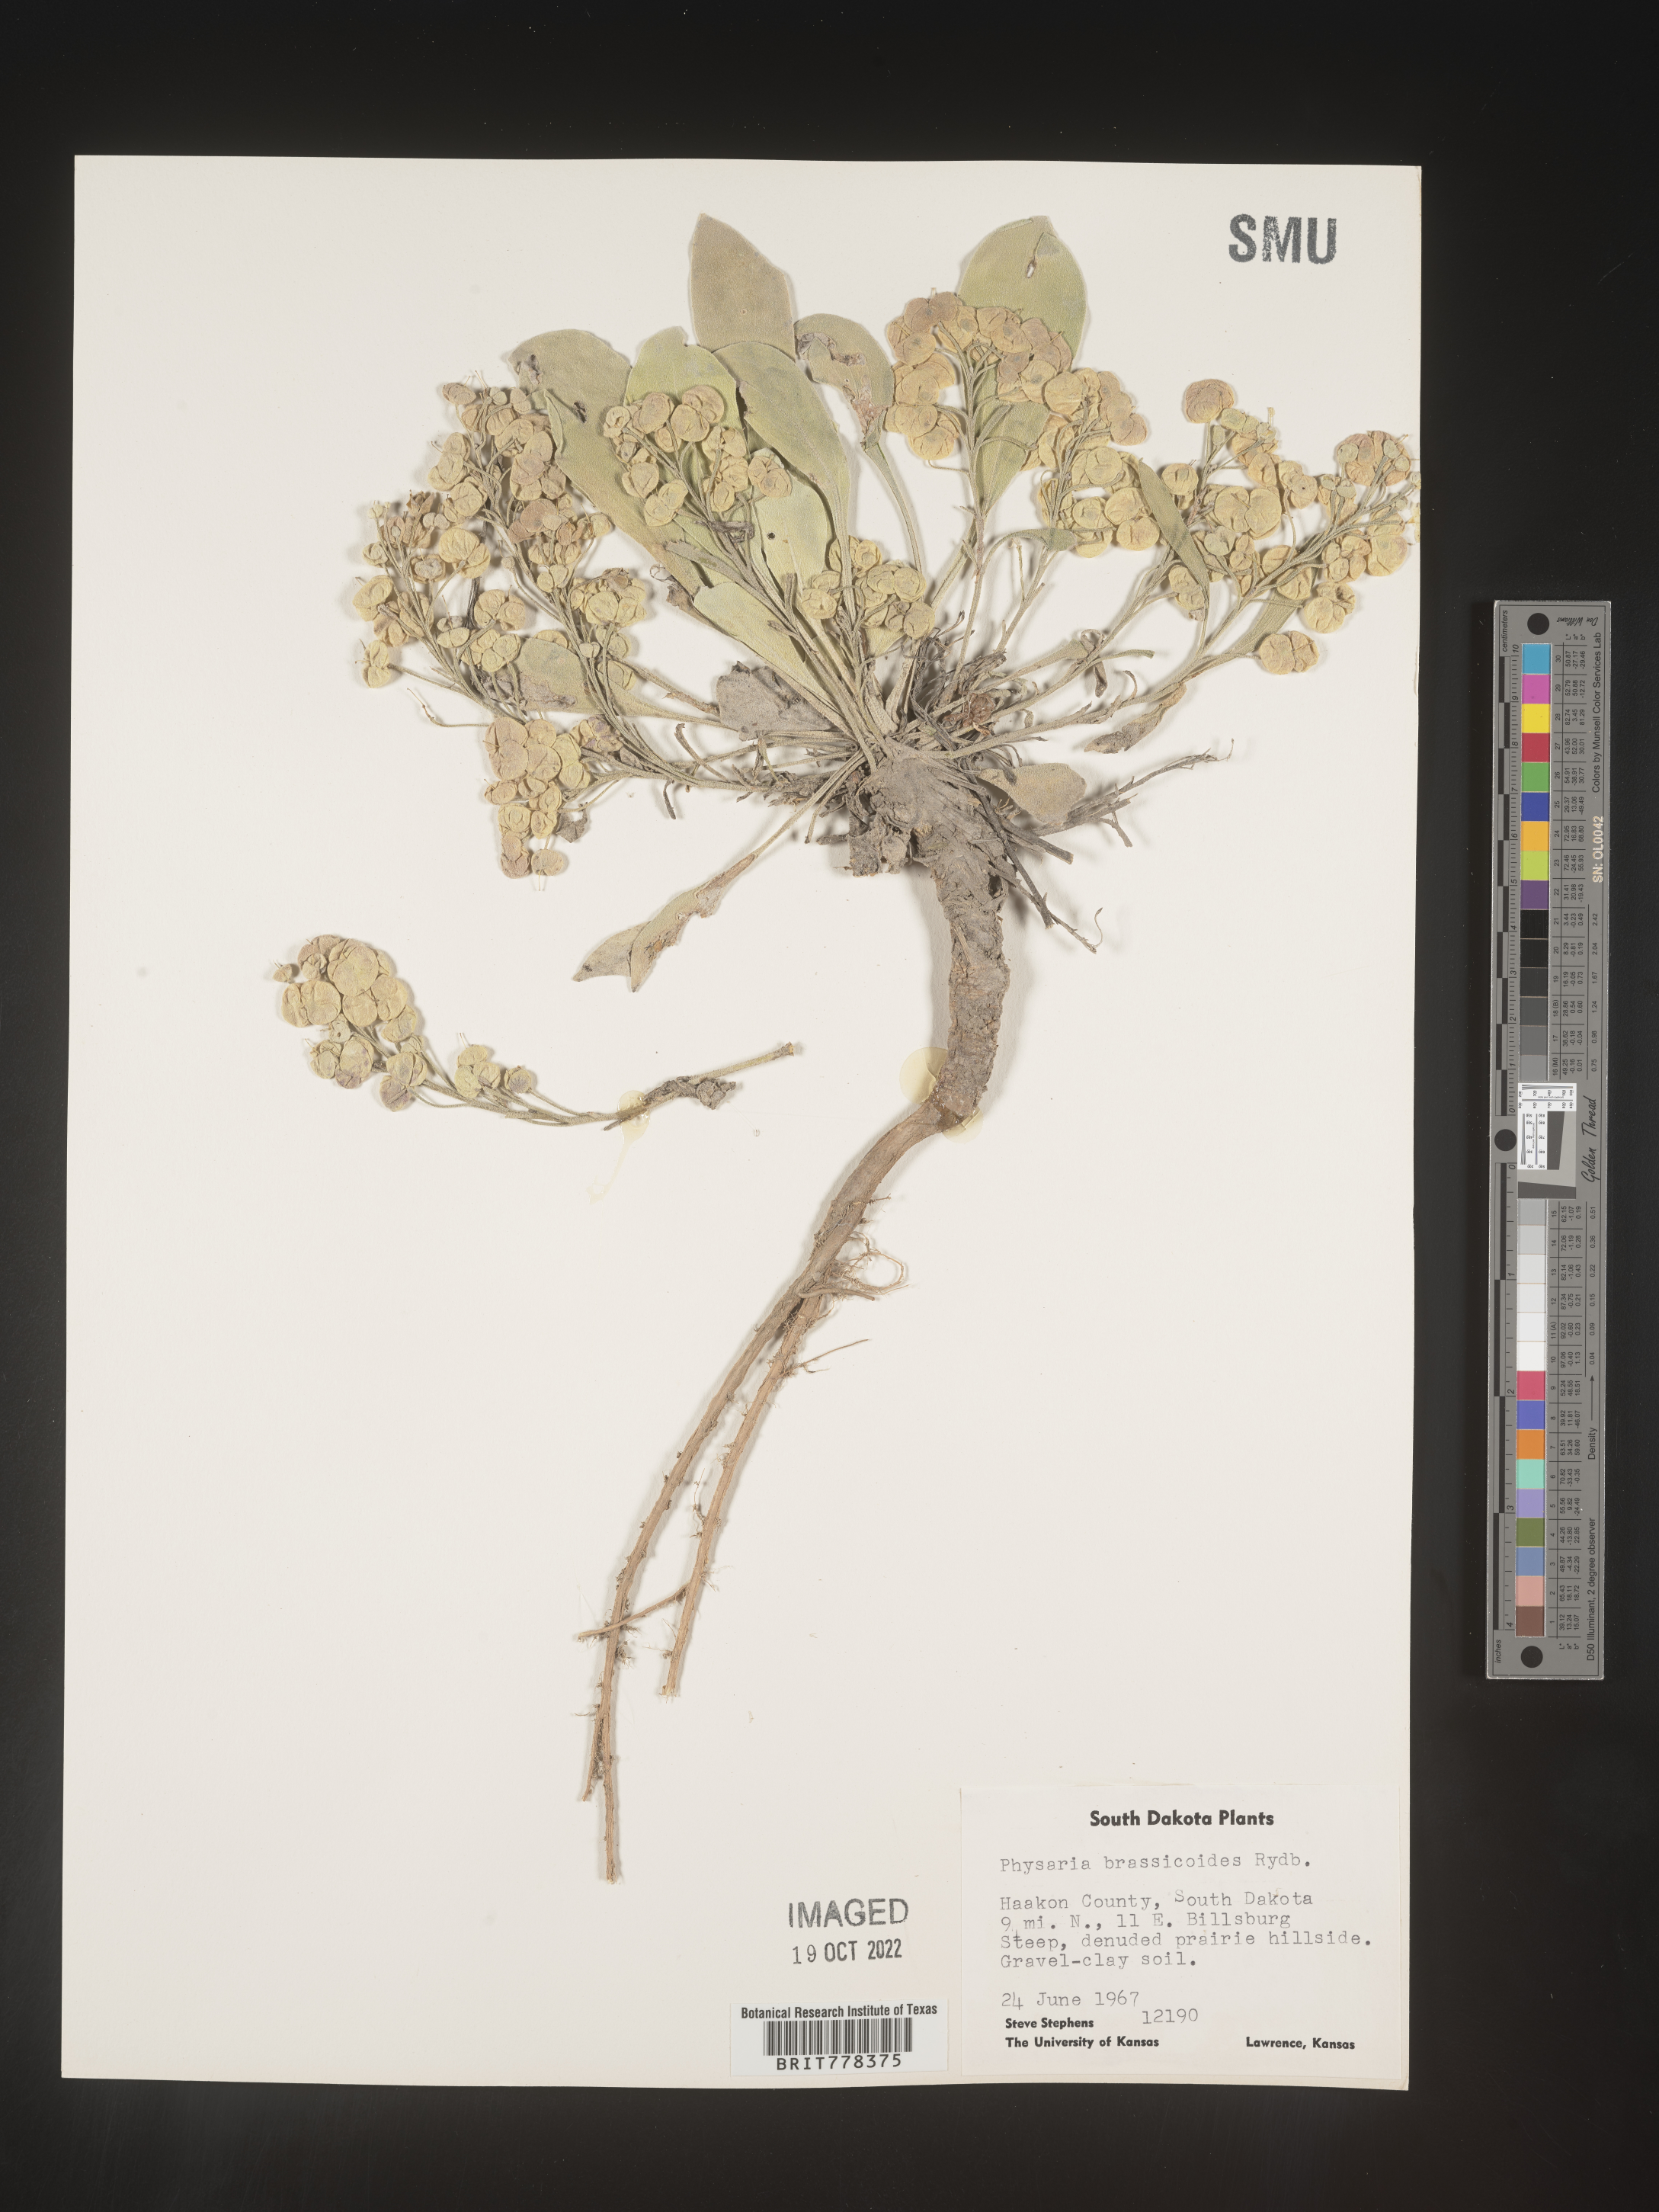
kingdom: Plantae
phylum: Tracheophyta
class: Magnoliopsida
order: Brassicales
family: Brassicaceae
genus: Physaria
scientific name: Physaria
